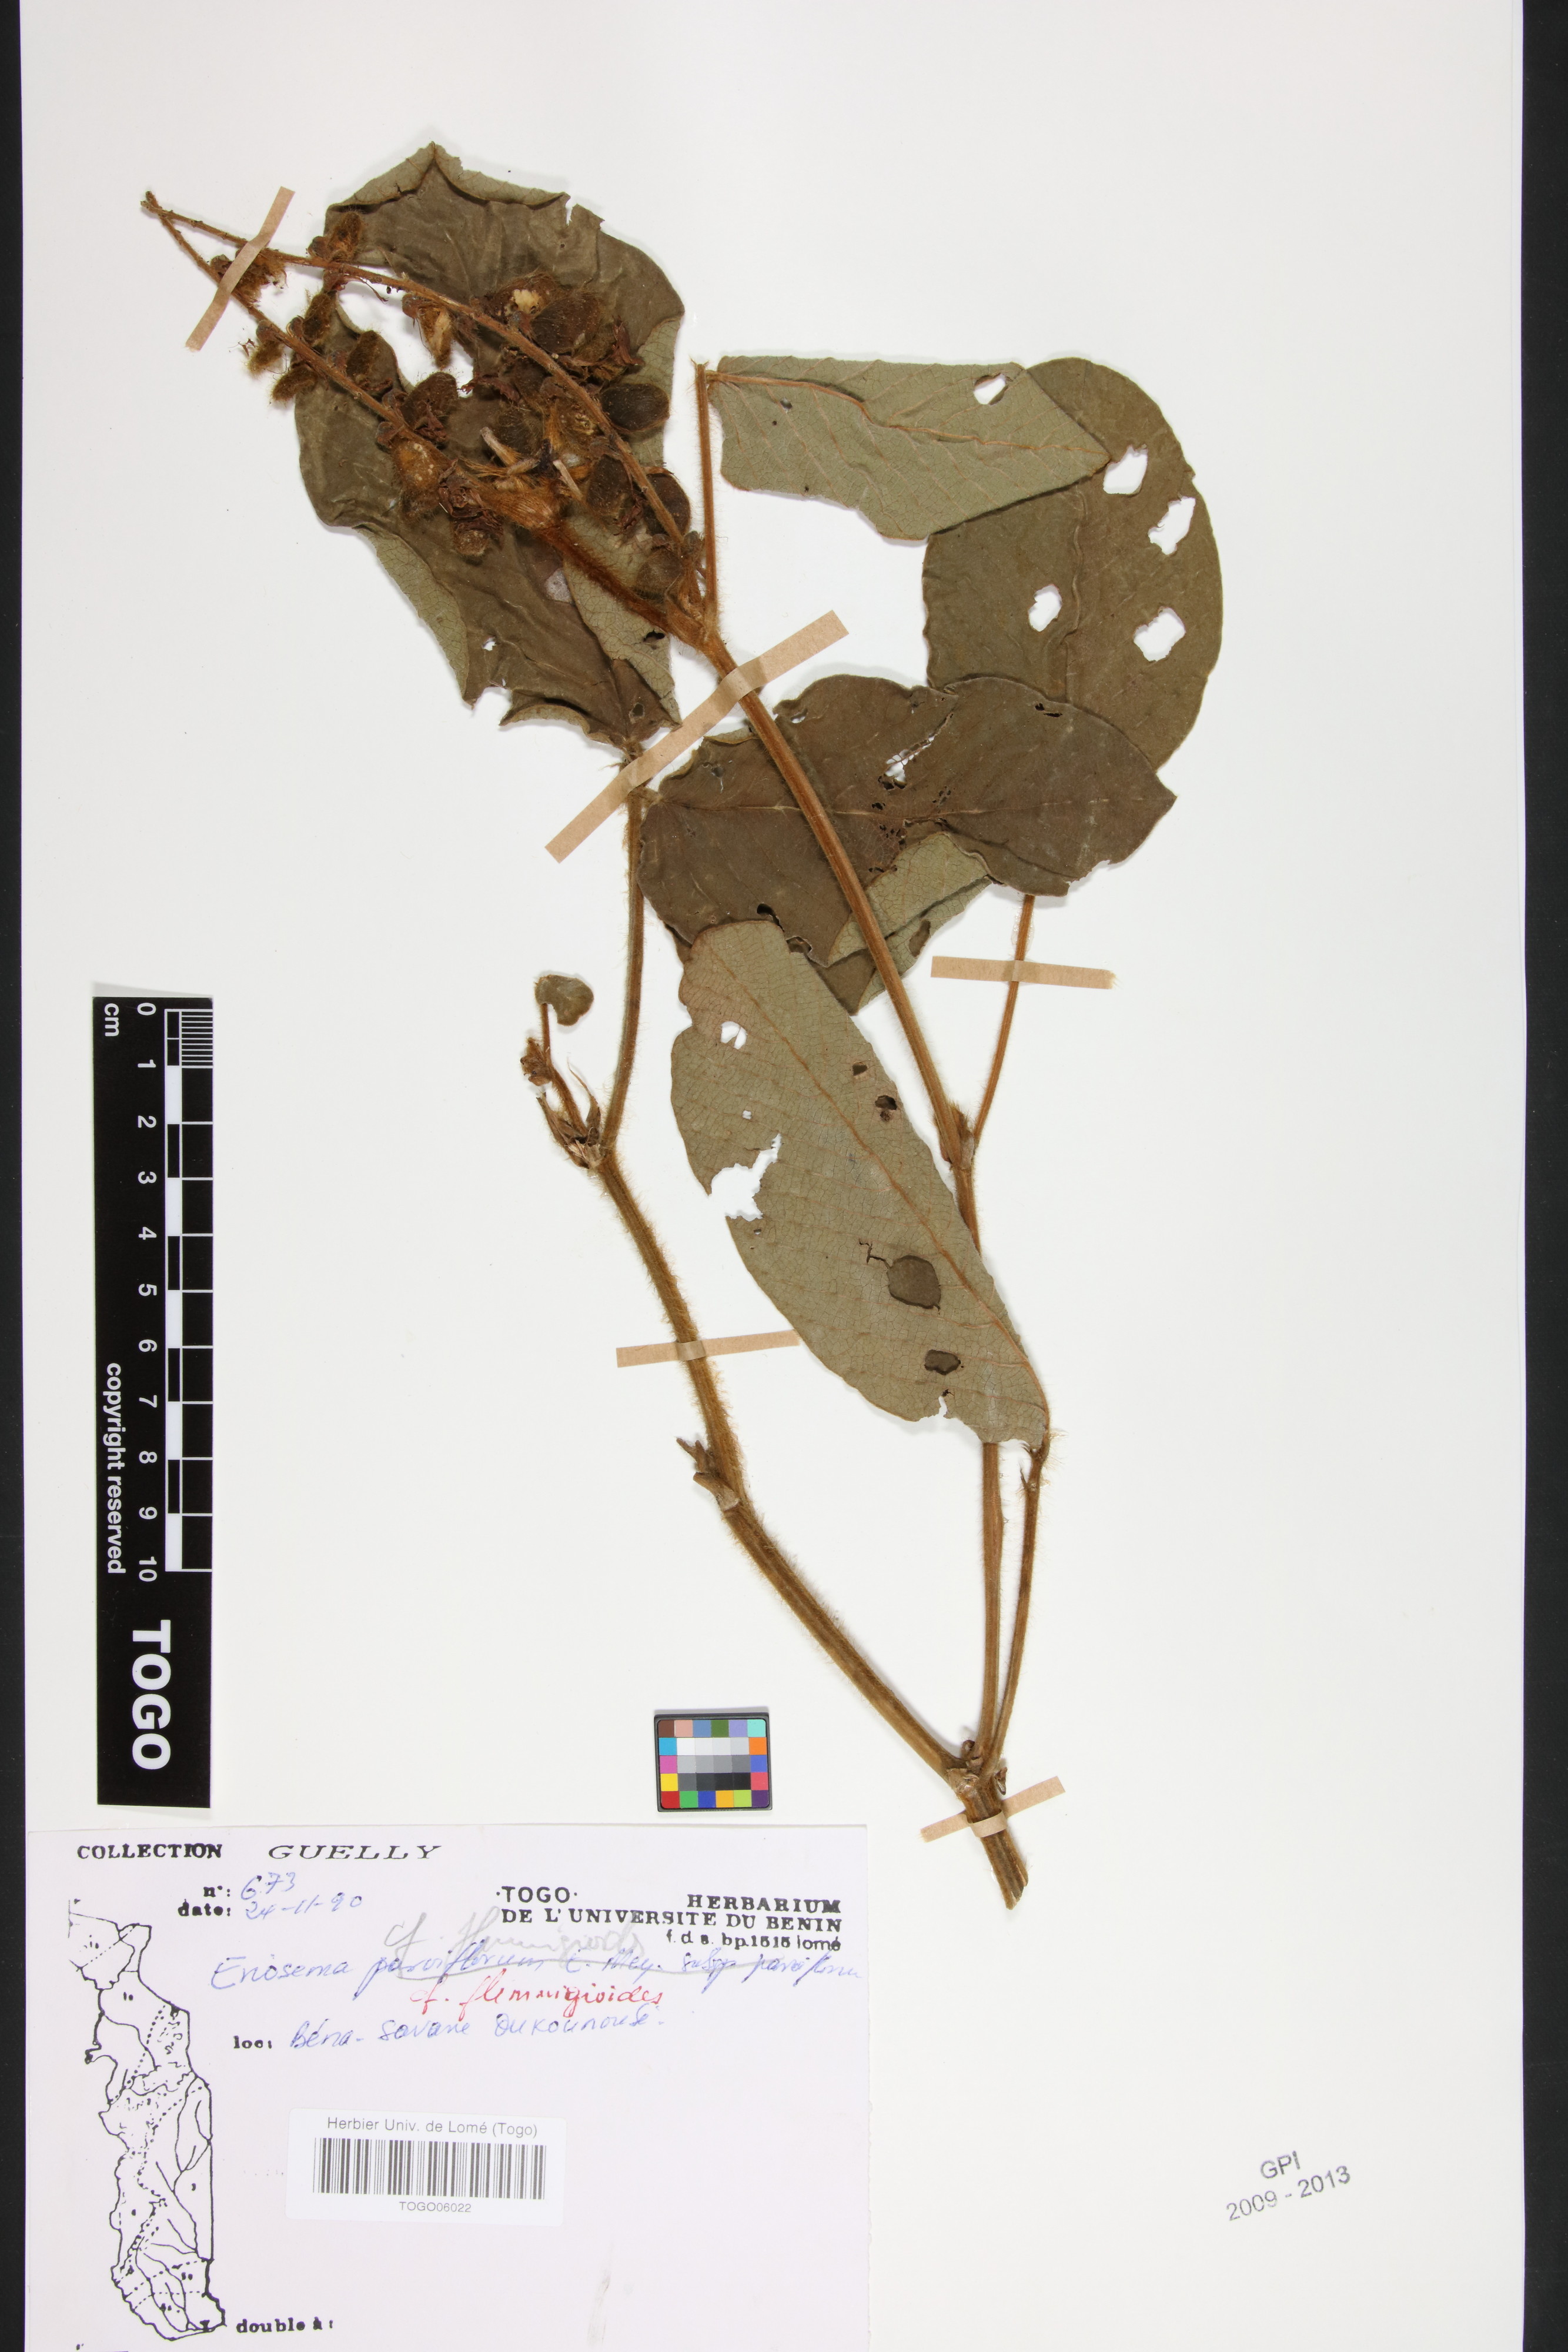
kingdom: Plantae
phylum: Tracheophyta
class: Magnoliopsida
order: Fabales
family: Fabaceae
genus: Eriosema
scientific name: Eriosema flemingioides
